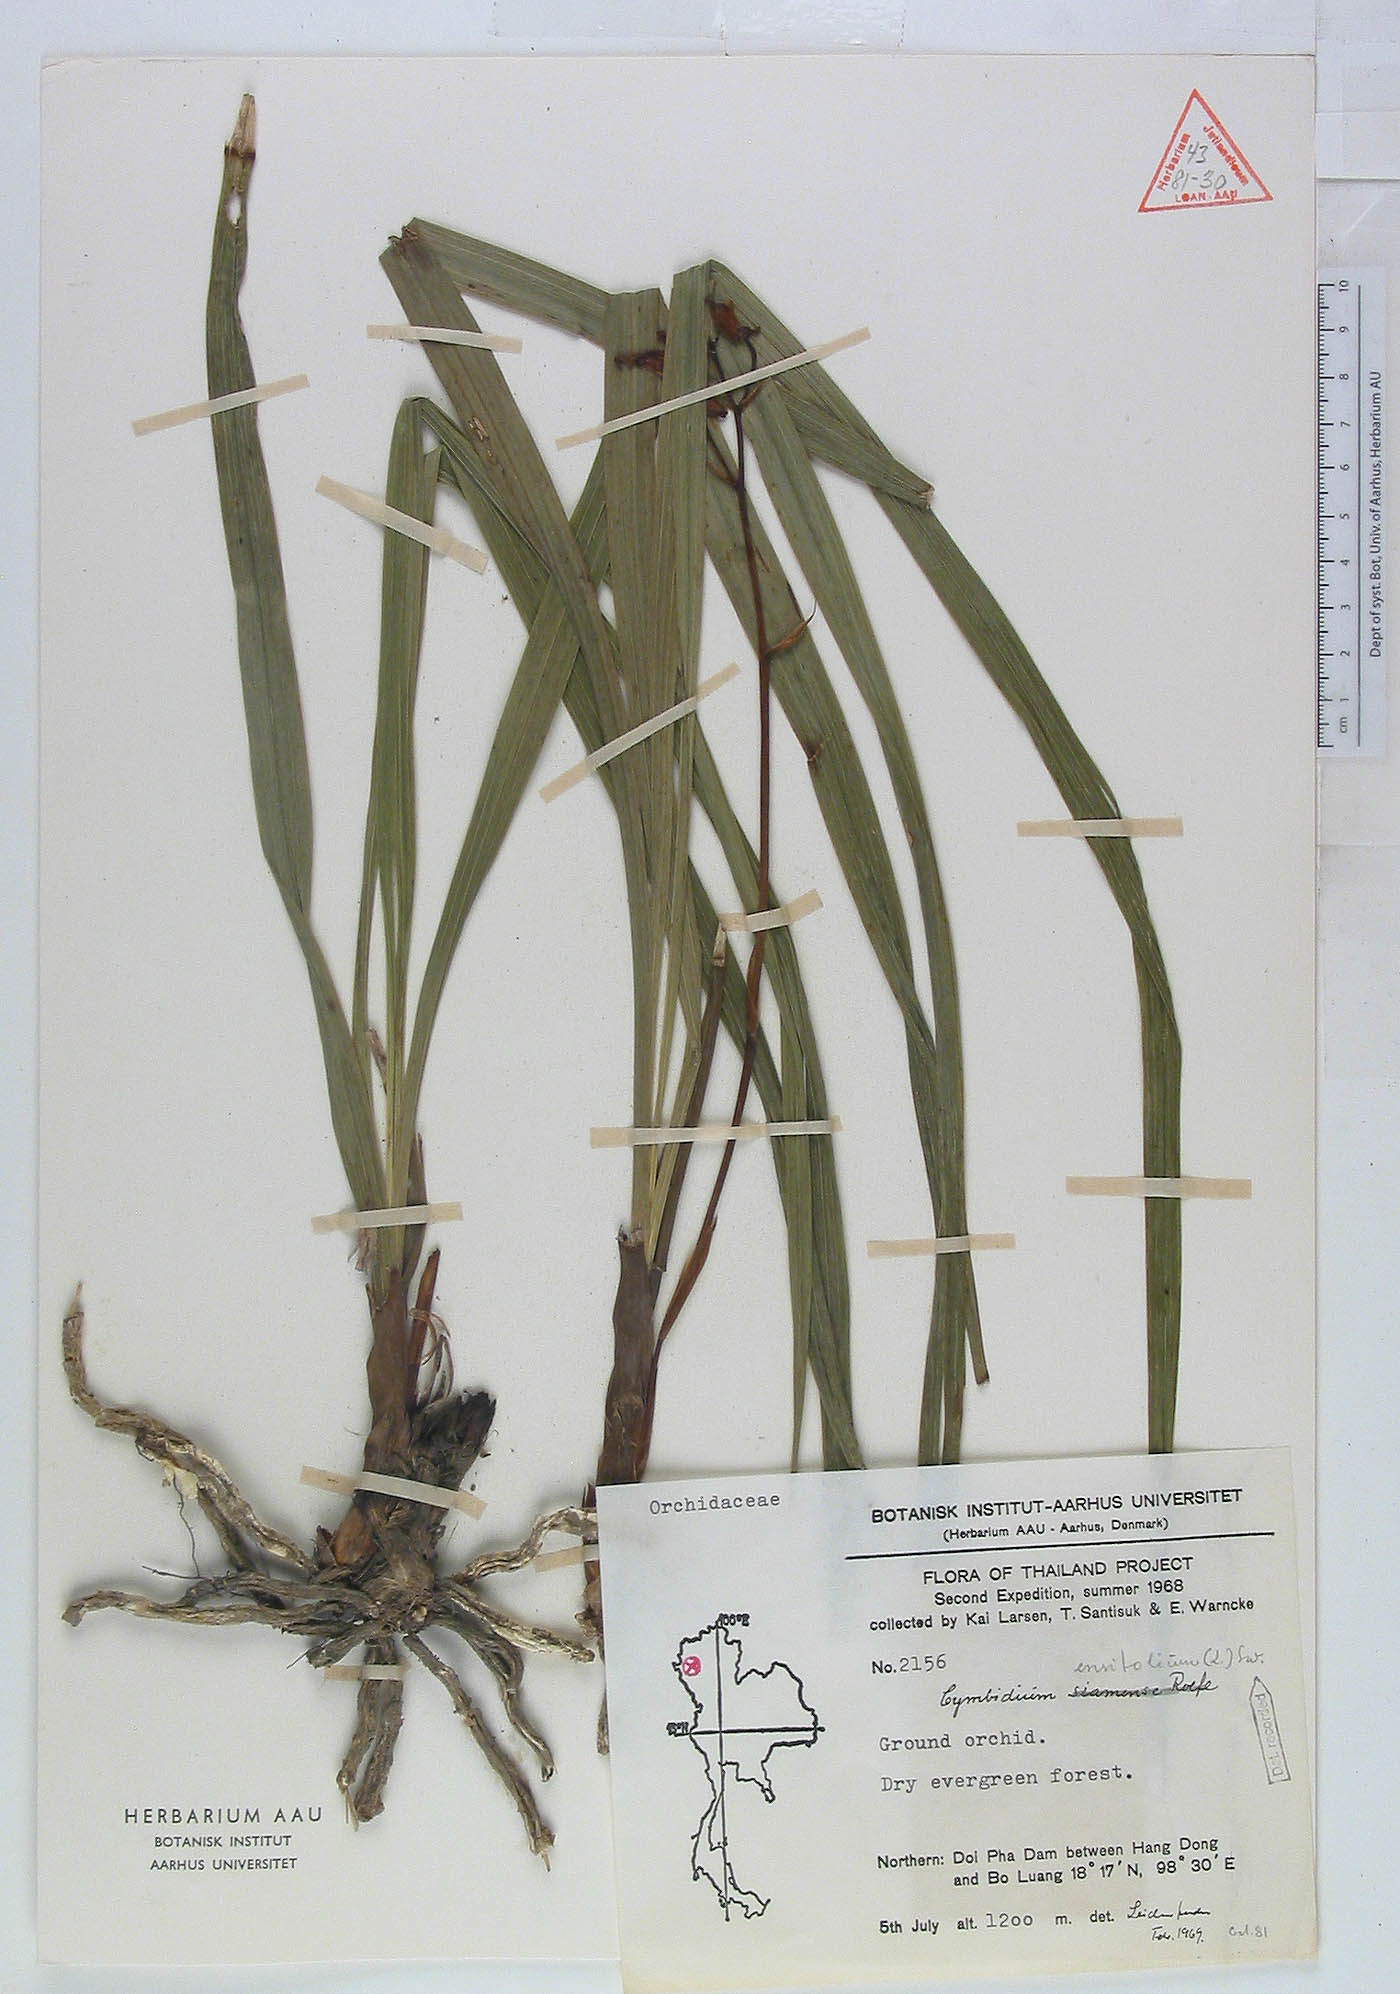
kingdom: Plantae
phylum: Tracheophyta
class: Liliopsida
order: Asparagales
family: Orchidaceae
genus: Cymbidium
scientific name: Cymbidium ensifolium
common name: Fukien-orchid
